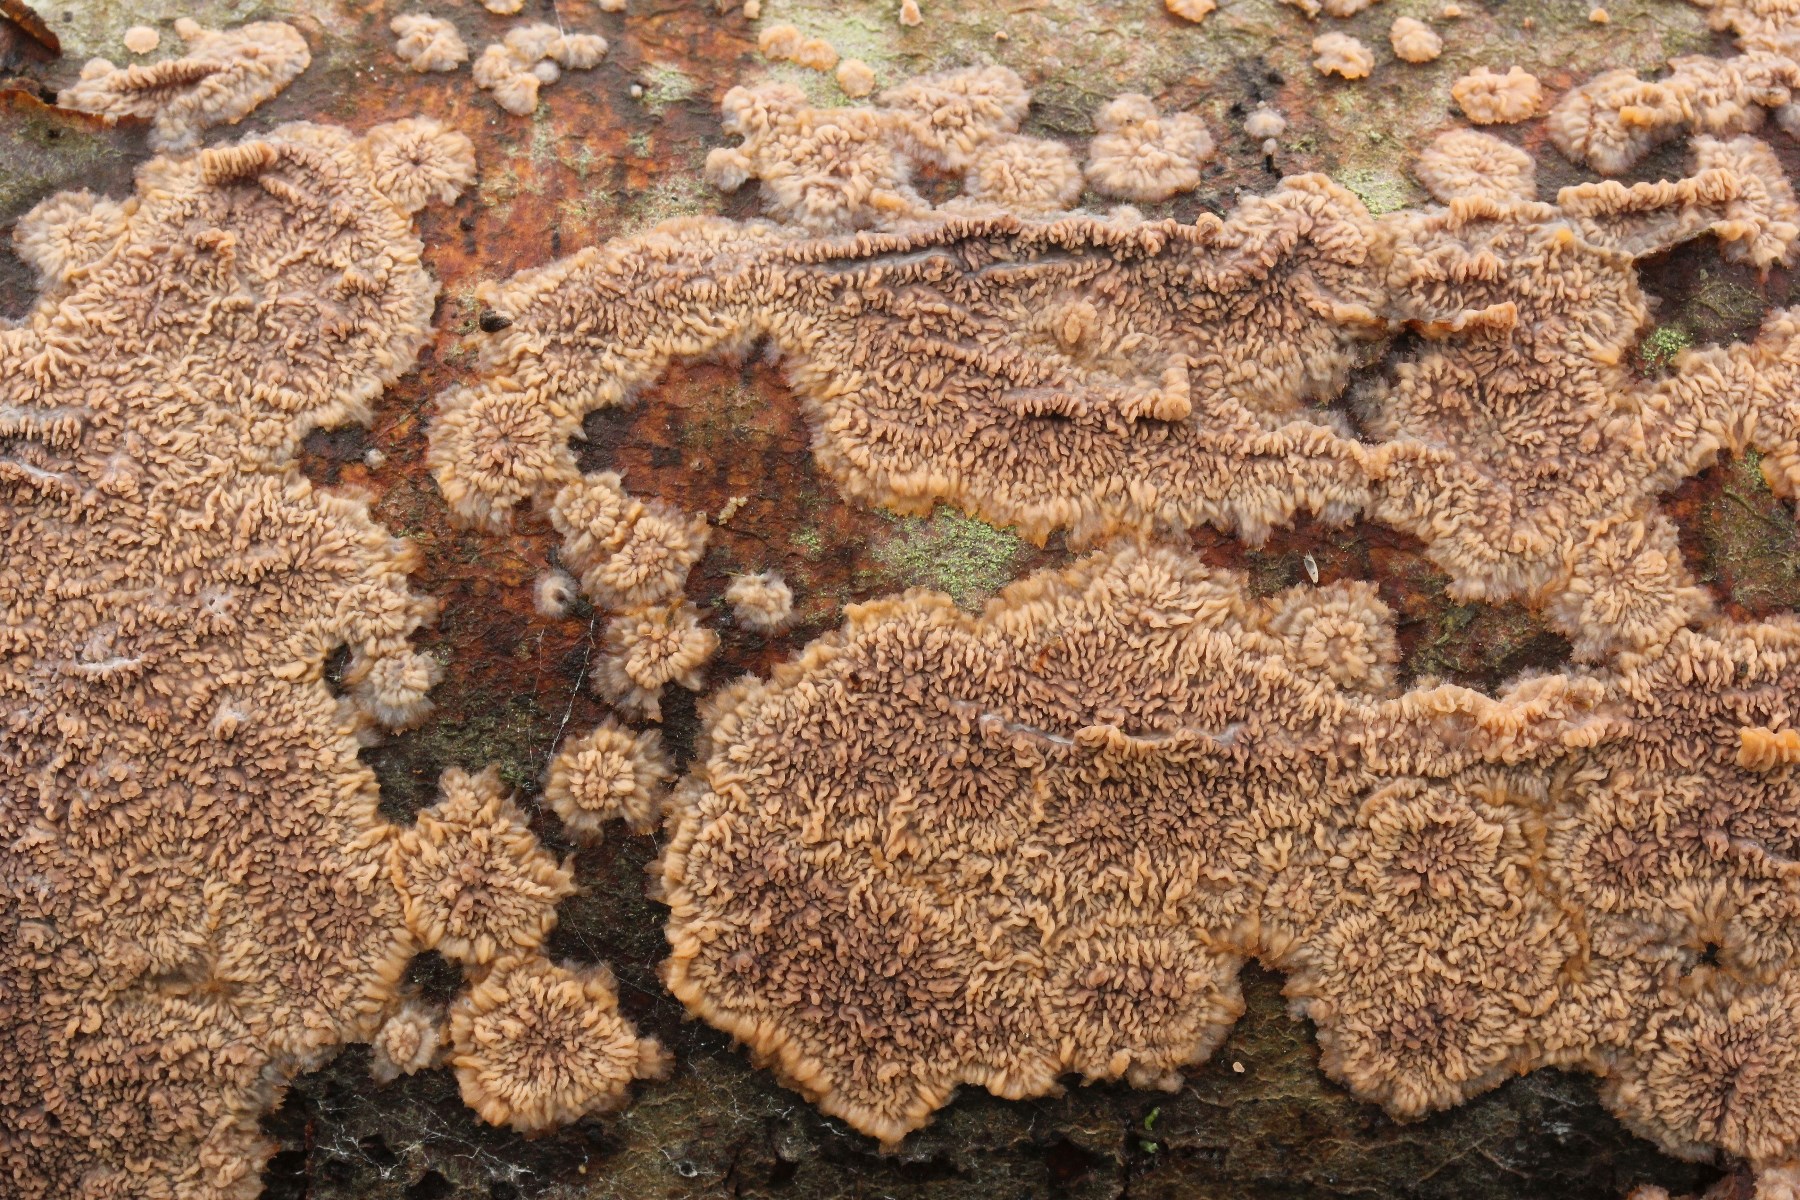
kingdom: Fungi
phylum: Basidiomycota
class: Agaricomycetes
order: Polyporales
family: Meruliaceae
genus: Phlebia
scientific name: Phlebia radiata
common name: stråle-åresvamp
